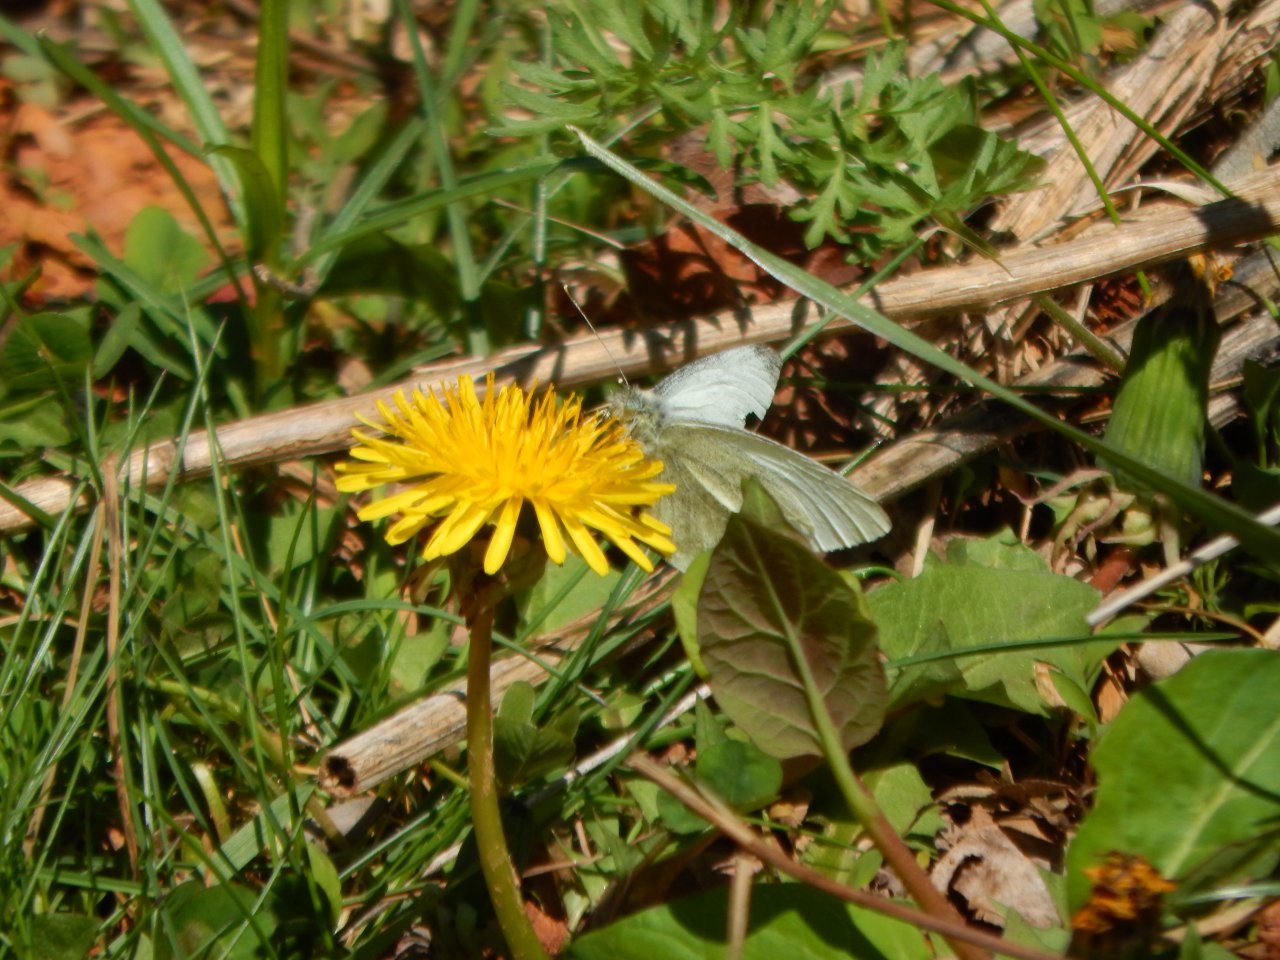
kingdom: Animalia
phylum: Arthropoda
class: Insecta
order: Lepidoptera
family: Pieridae
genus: Pieris
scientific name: Pieris rapae
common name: Cabbage White
